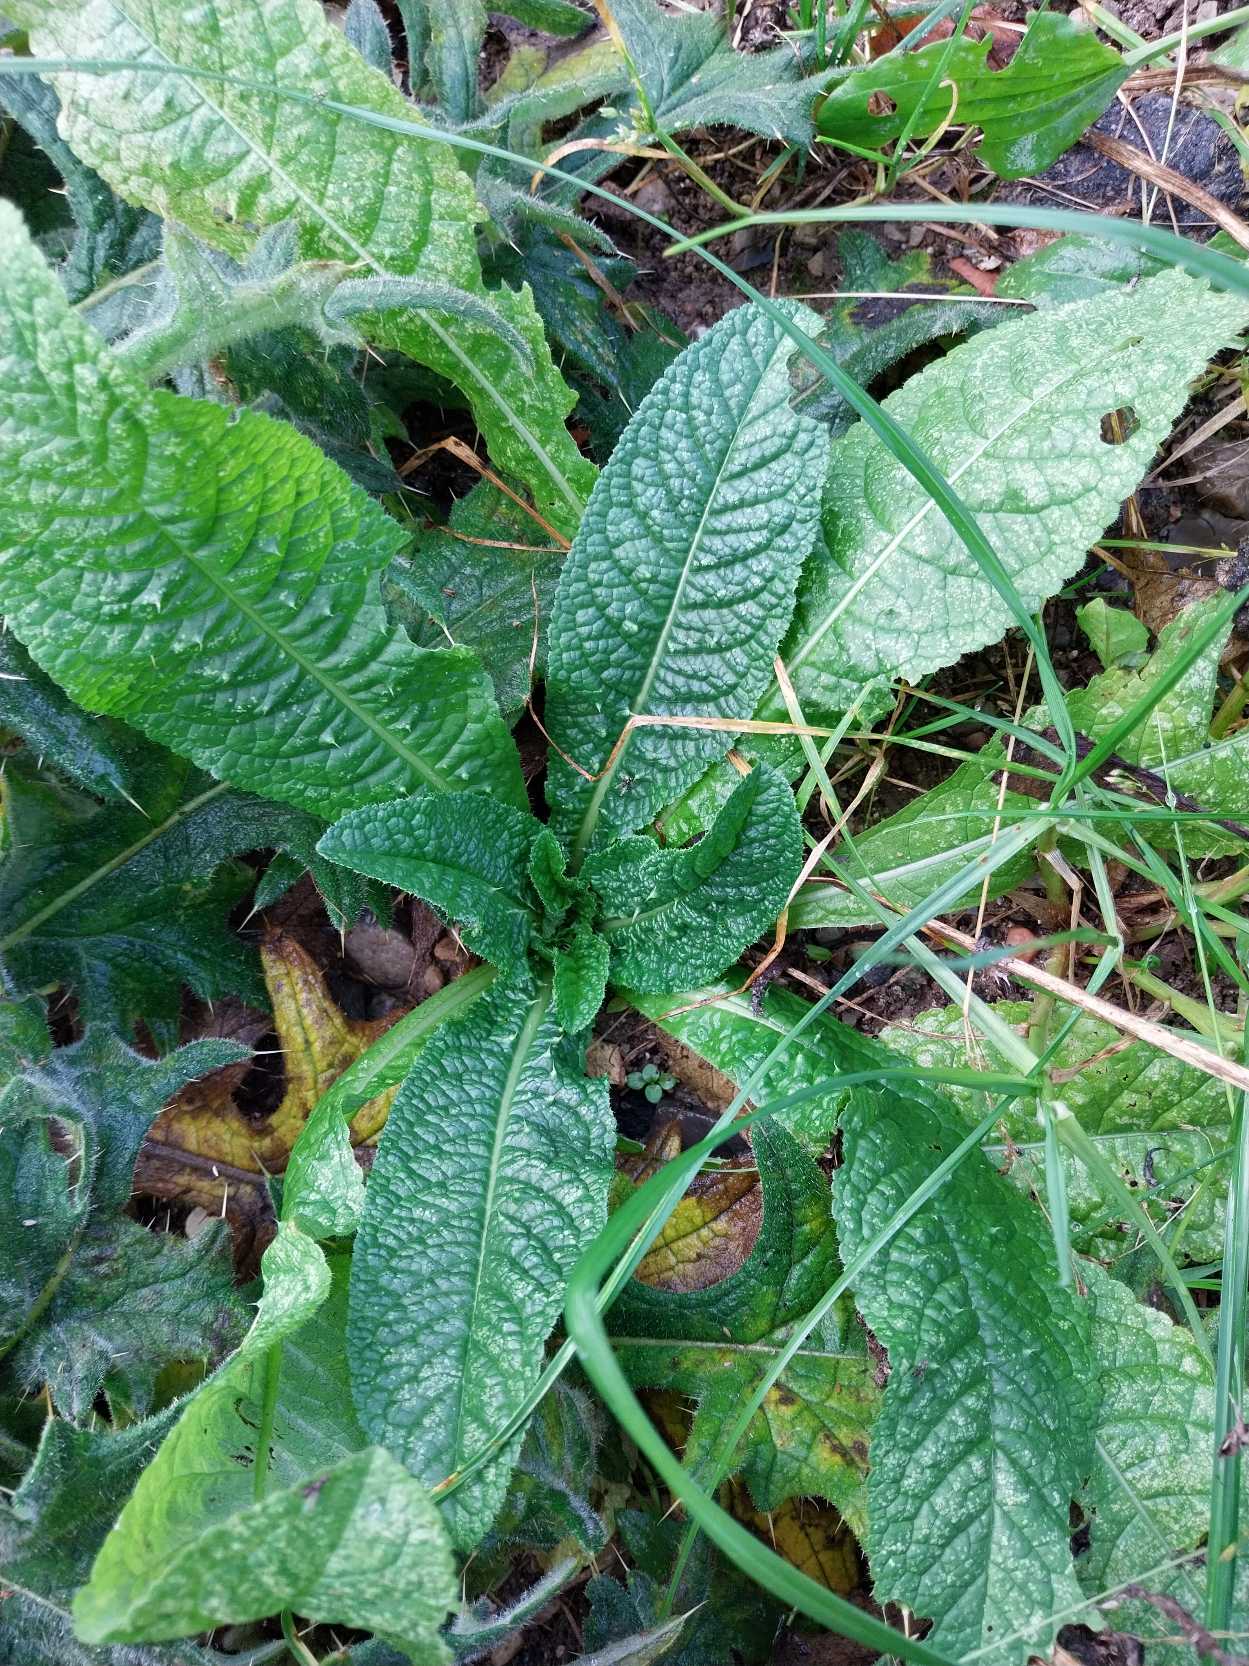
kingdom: Plantae
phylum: Tracheophyta
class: Magnoliopsida
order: Dipsacales
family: Caprifoliaceae
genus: Dipsacus
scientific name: Dipsacus fullonum
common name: Gærde-kartebolle
